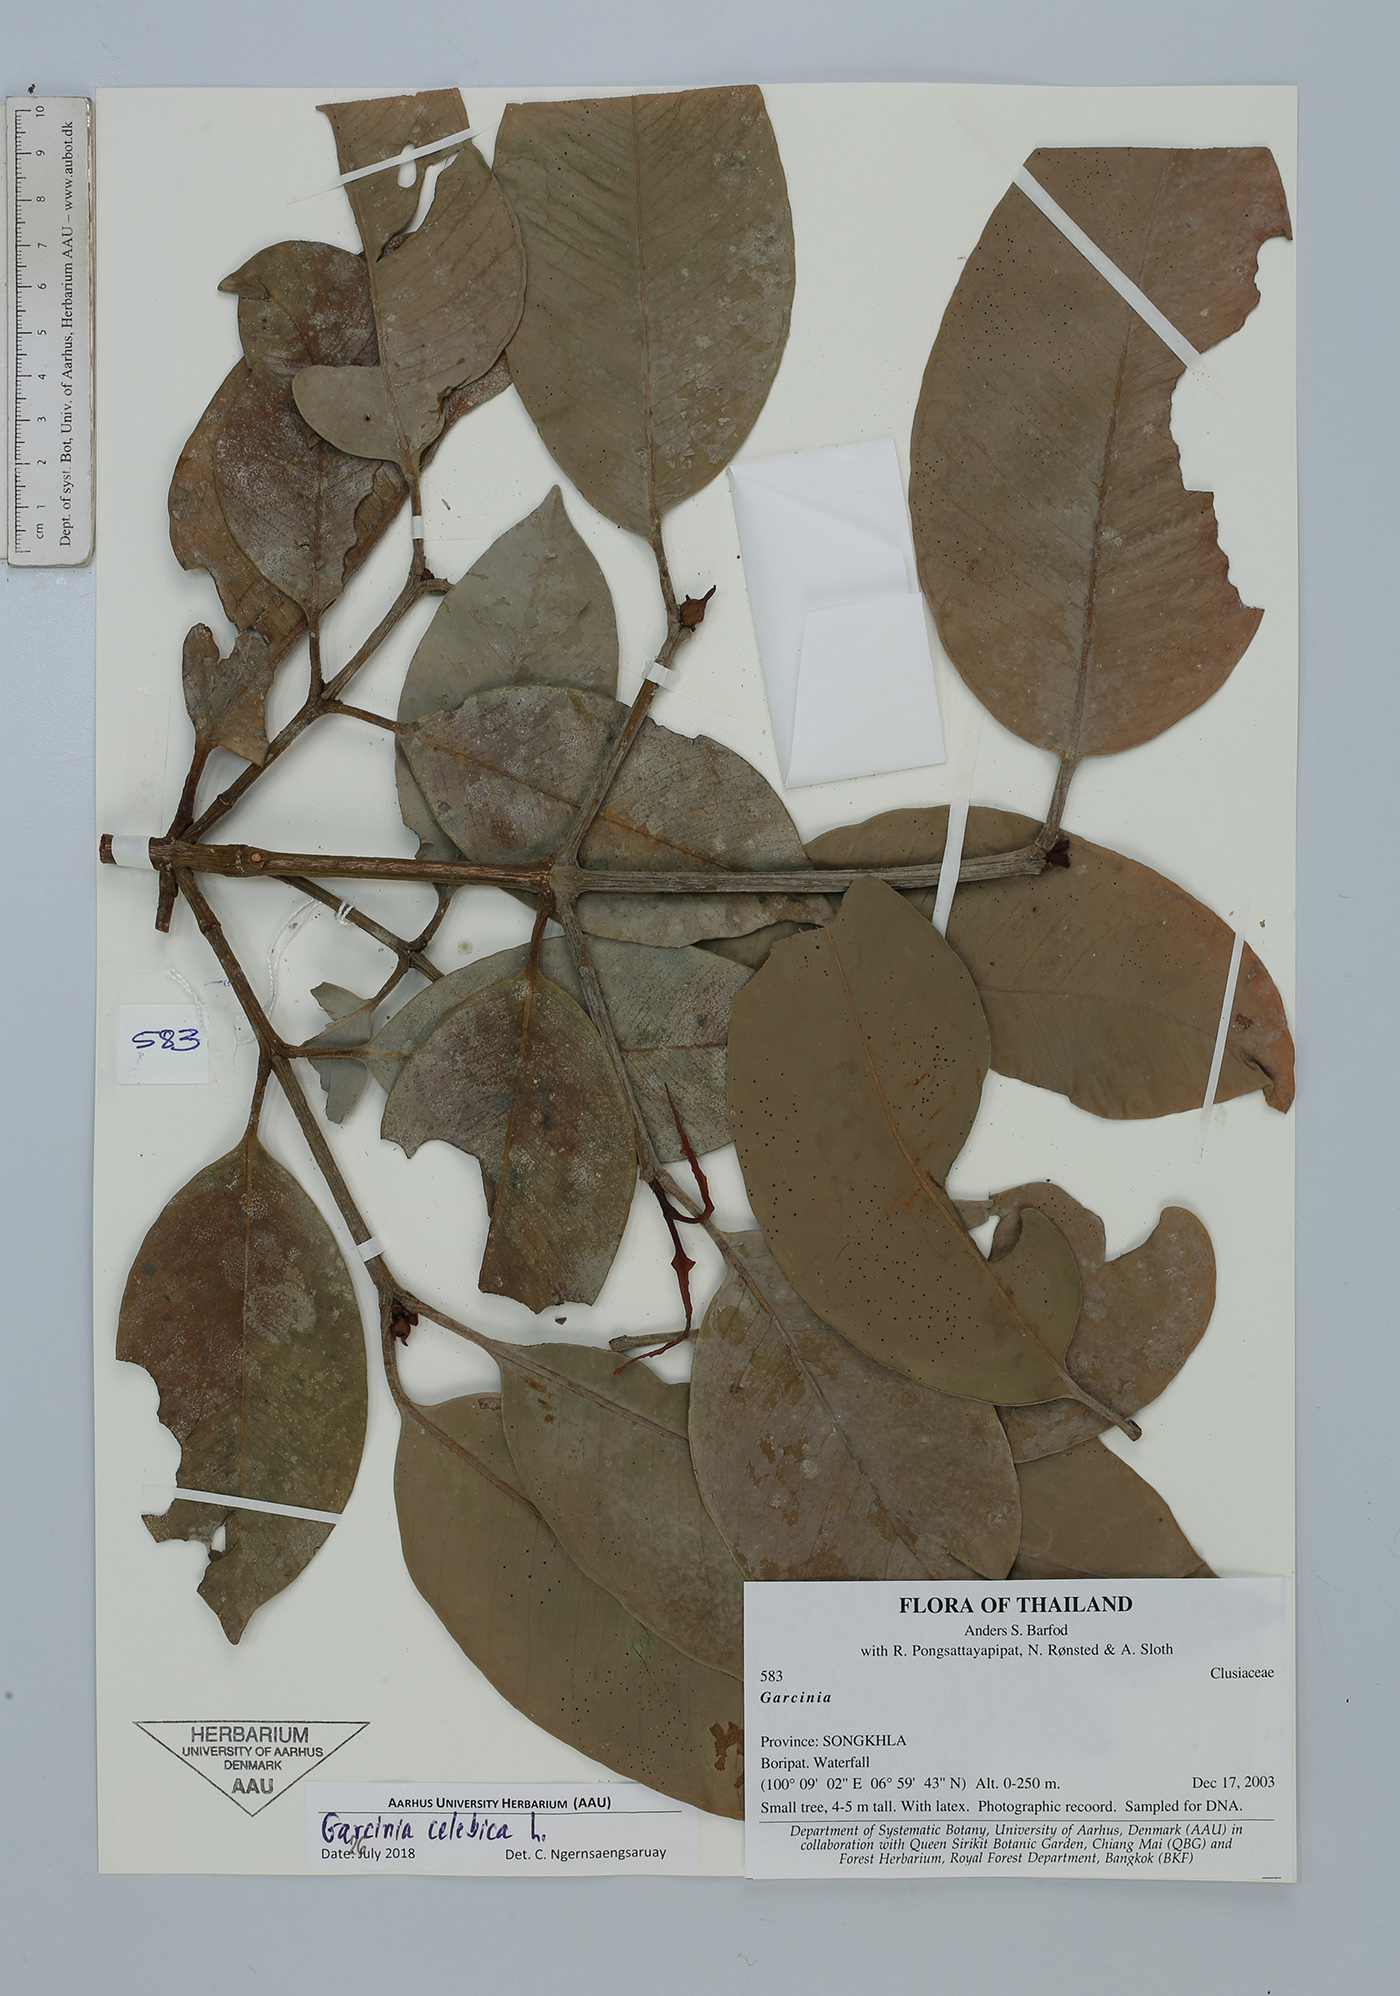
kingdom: Plantae
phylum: Tracheophyta
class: Magnoliopsida
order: Malpighiales
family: Clusiaceae
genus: Garcinia
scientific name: Garcinia celebica
